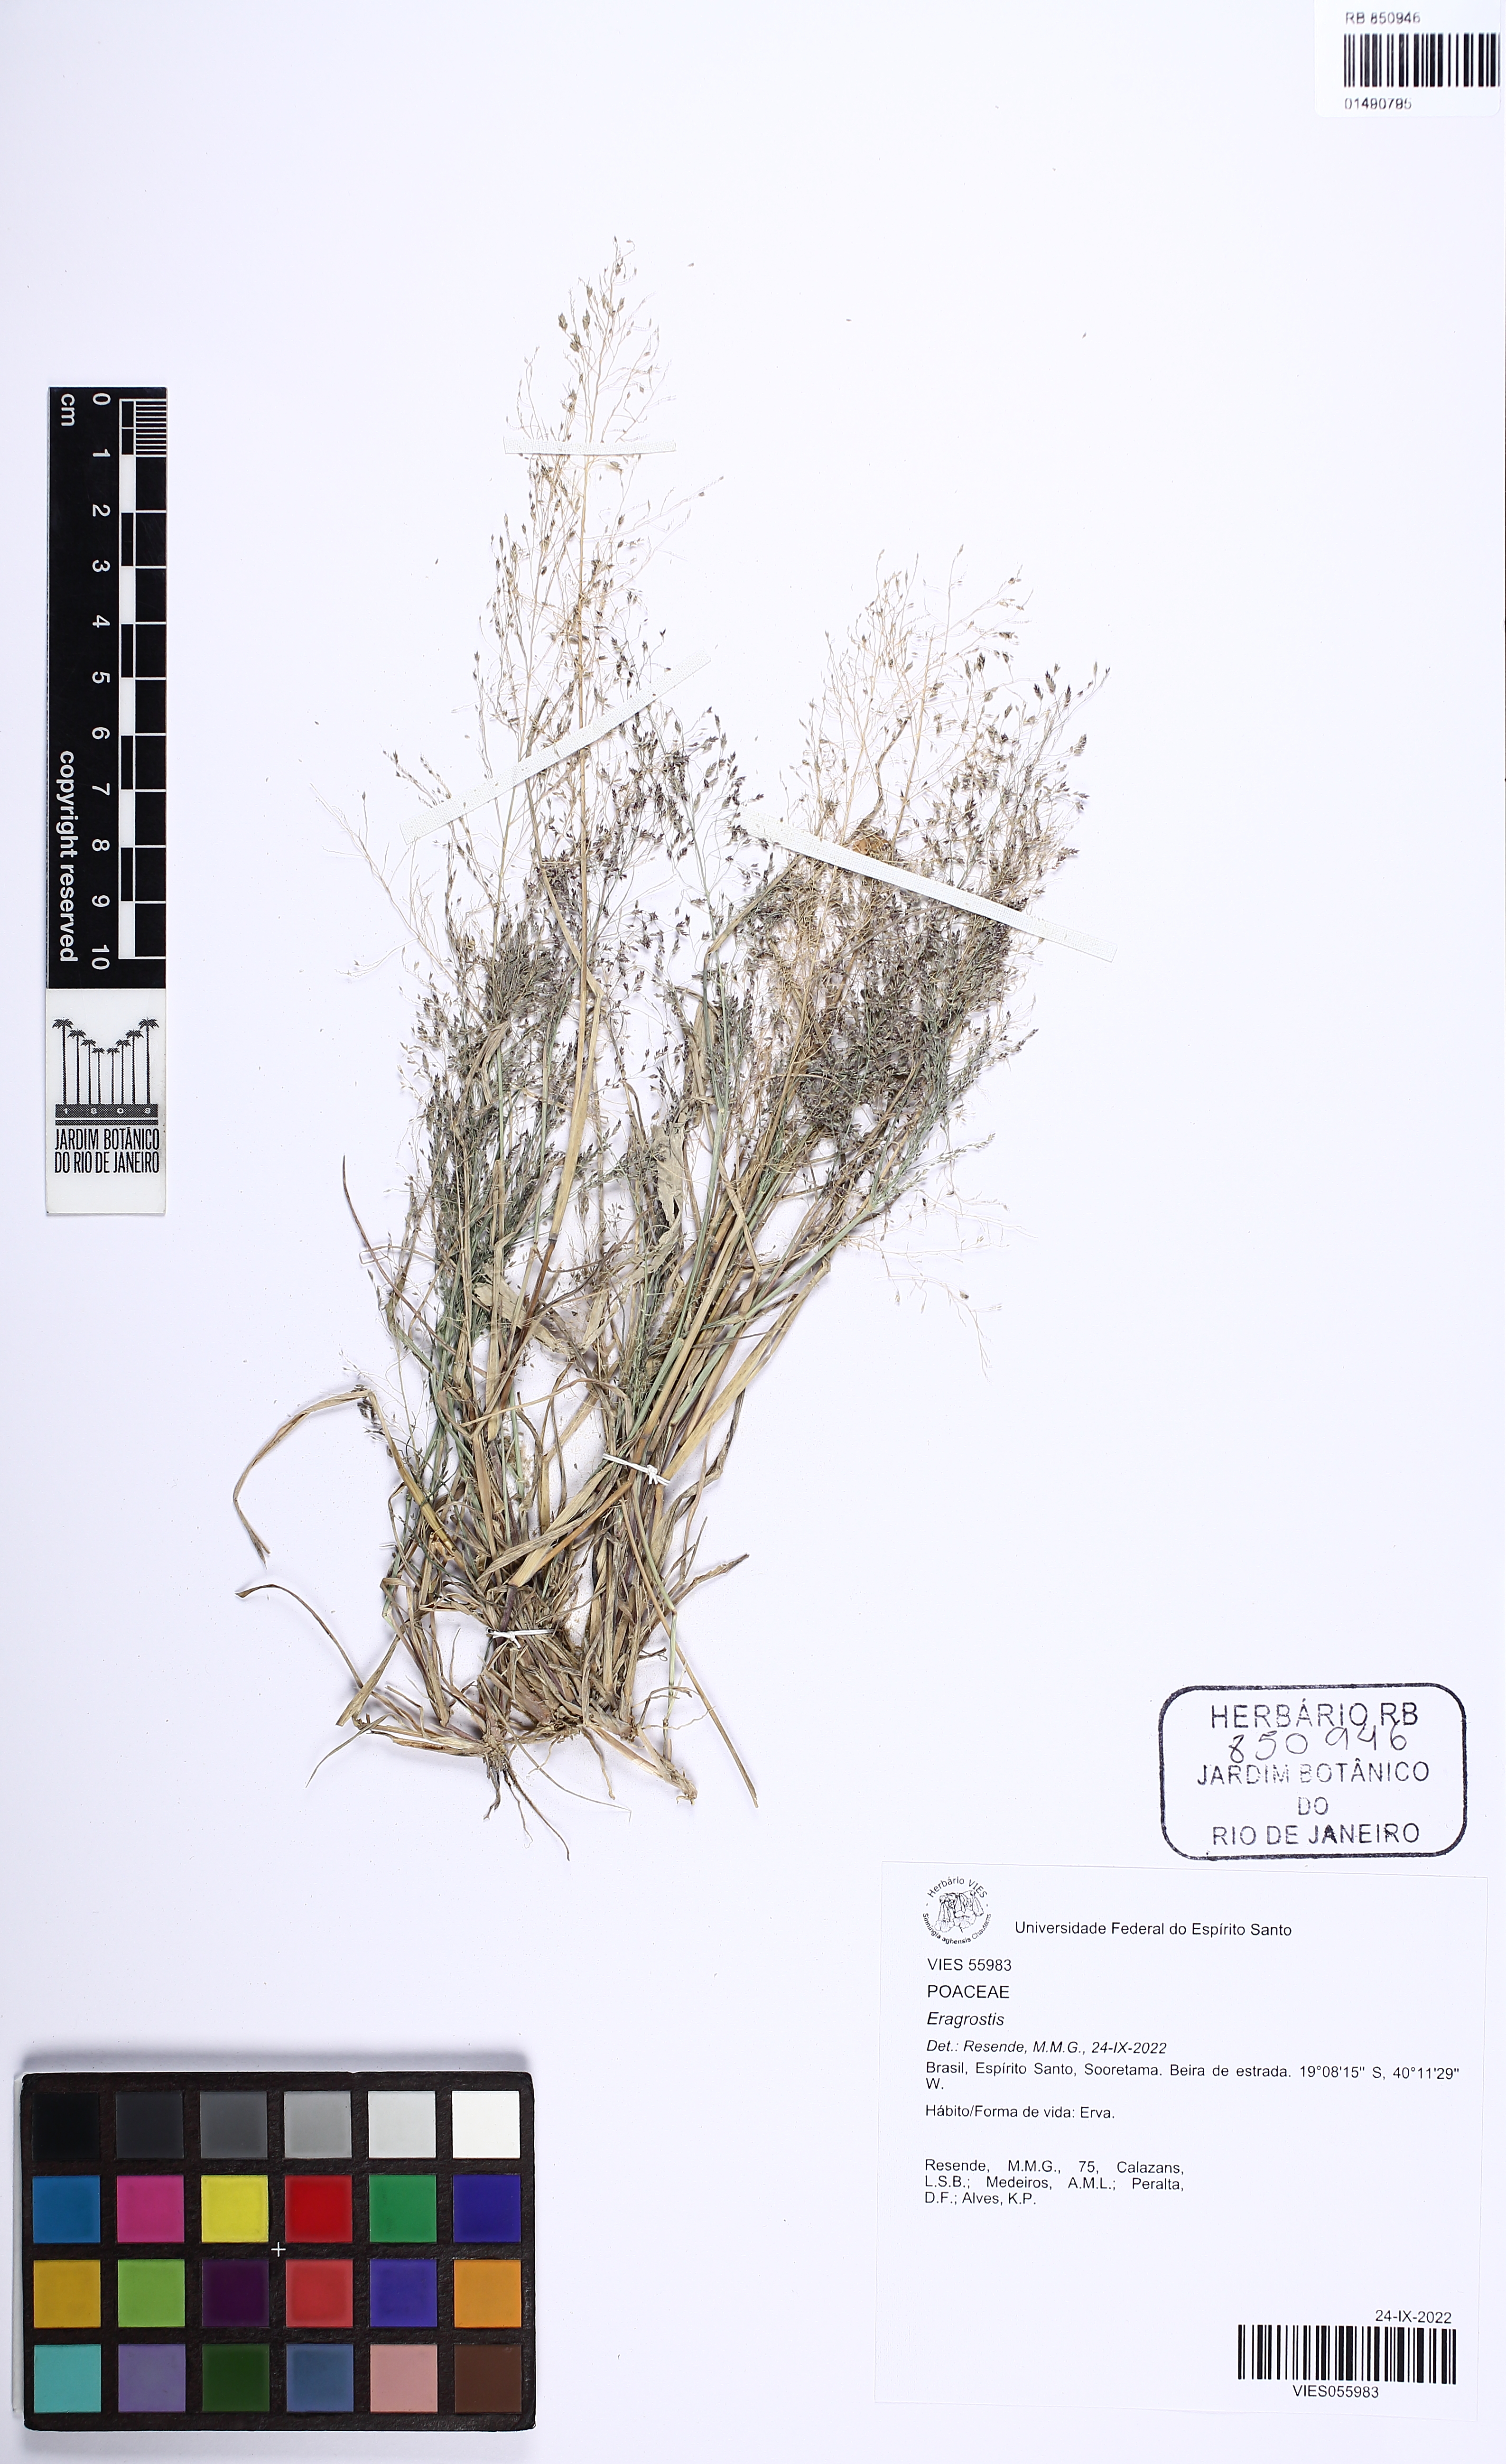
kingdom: Plantae
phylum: Tracheophyta
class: Liliopsida
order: Poales
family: Poaceae
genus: Eragrostis
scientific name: Eragrostis
